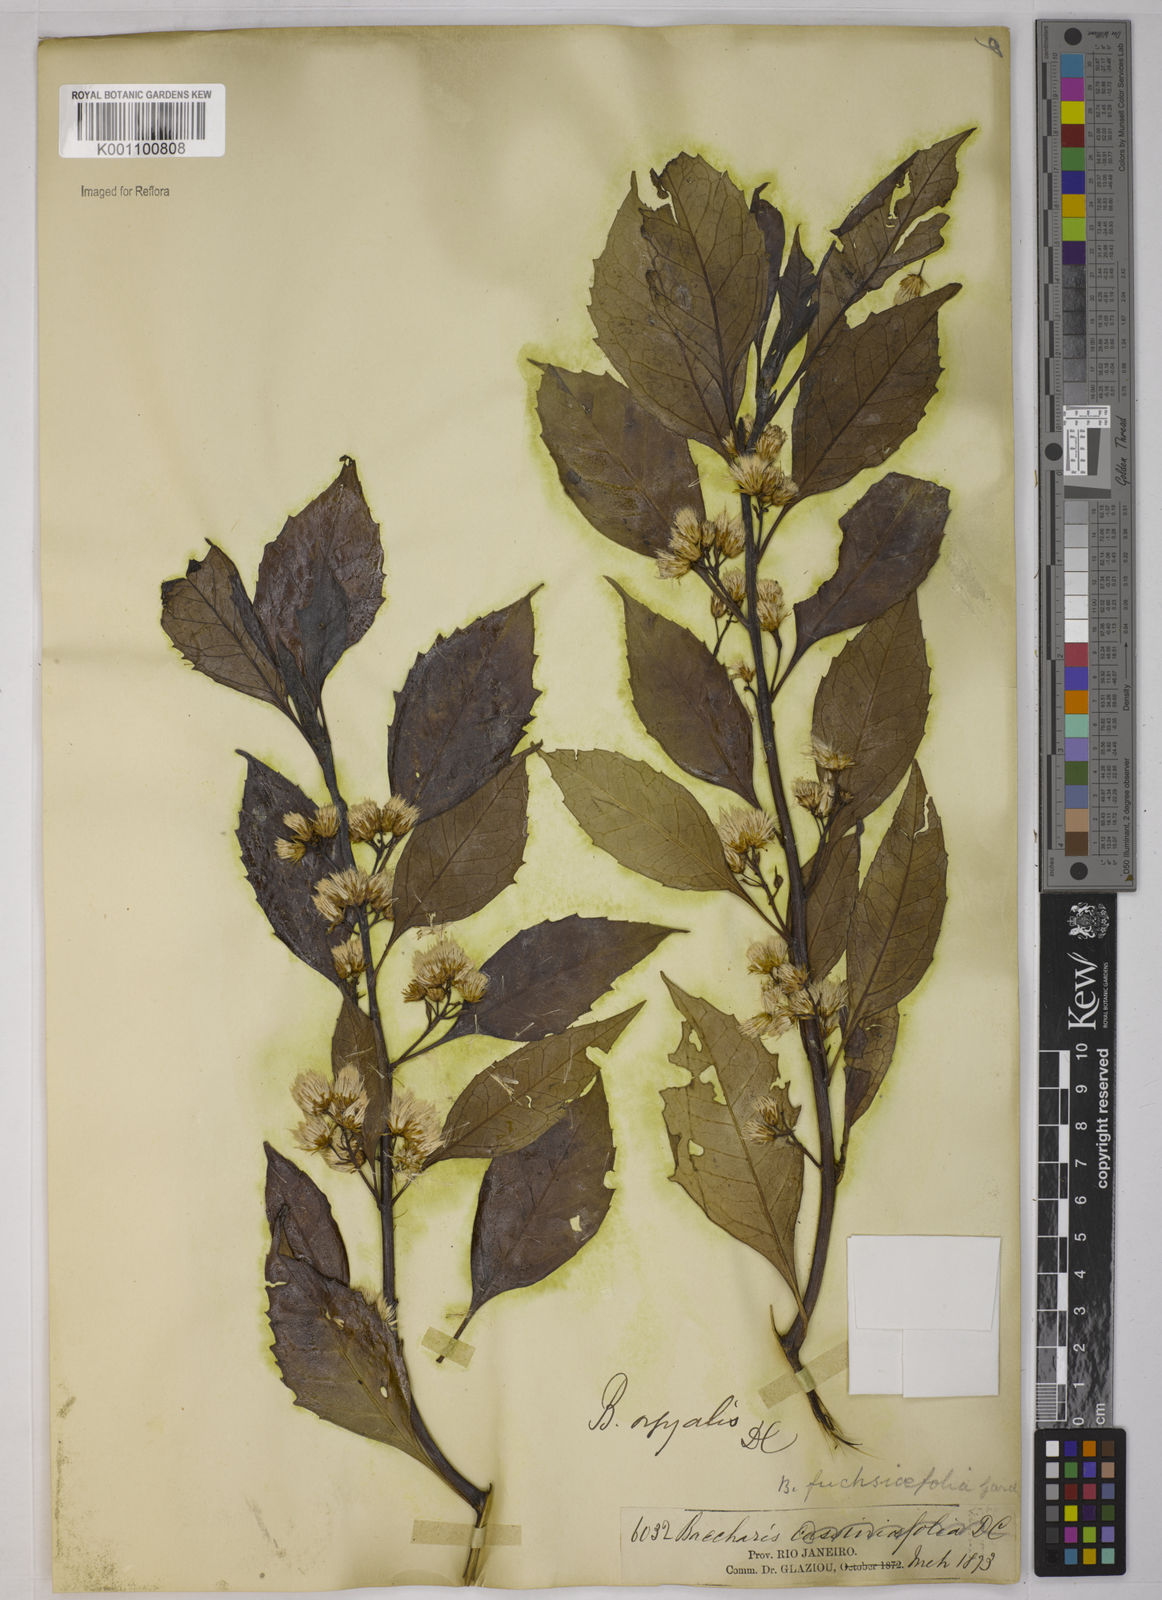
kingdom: Plantae
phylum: Tracheophyta
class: Magnoliopsida
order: Asterales
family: Asteraceae
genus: Baccharis
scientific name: Baccharis dentata
